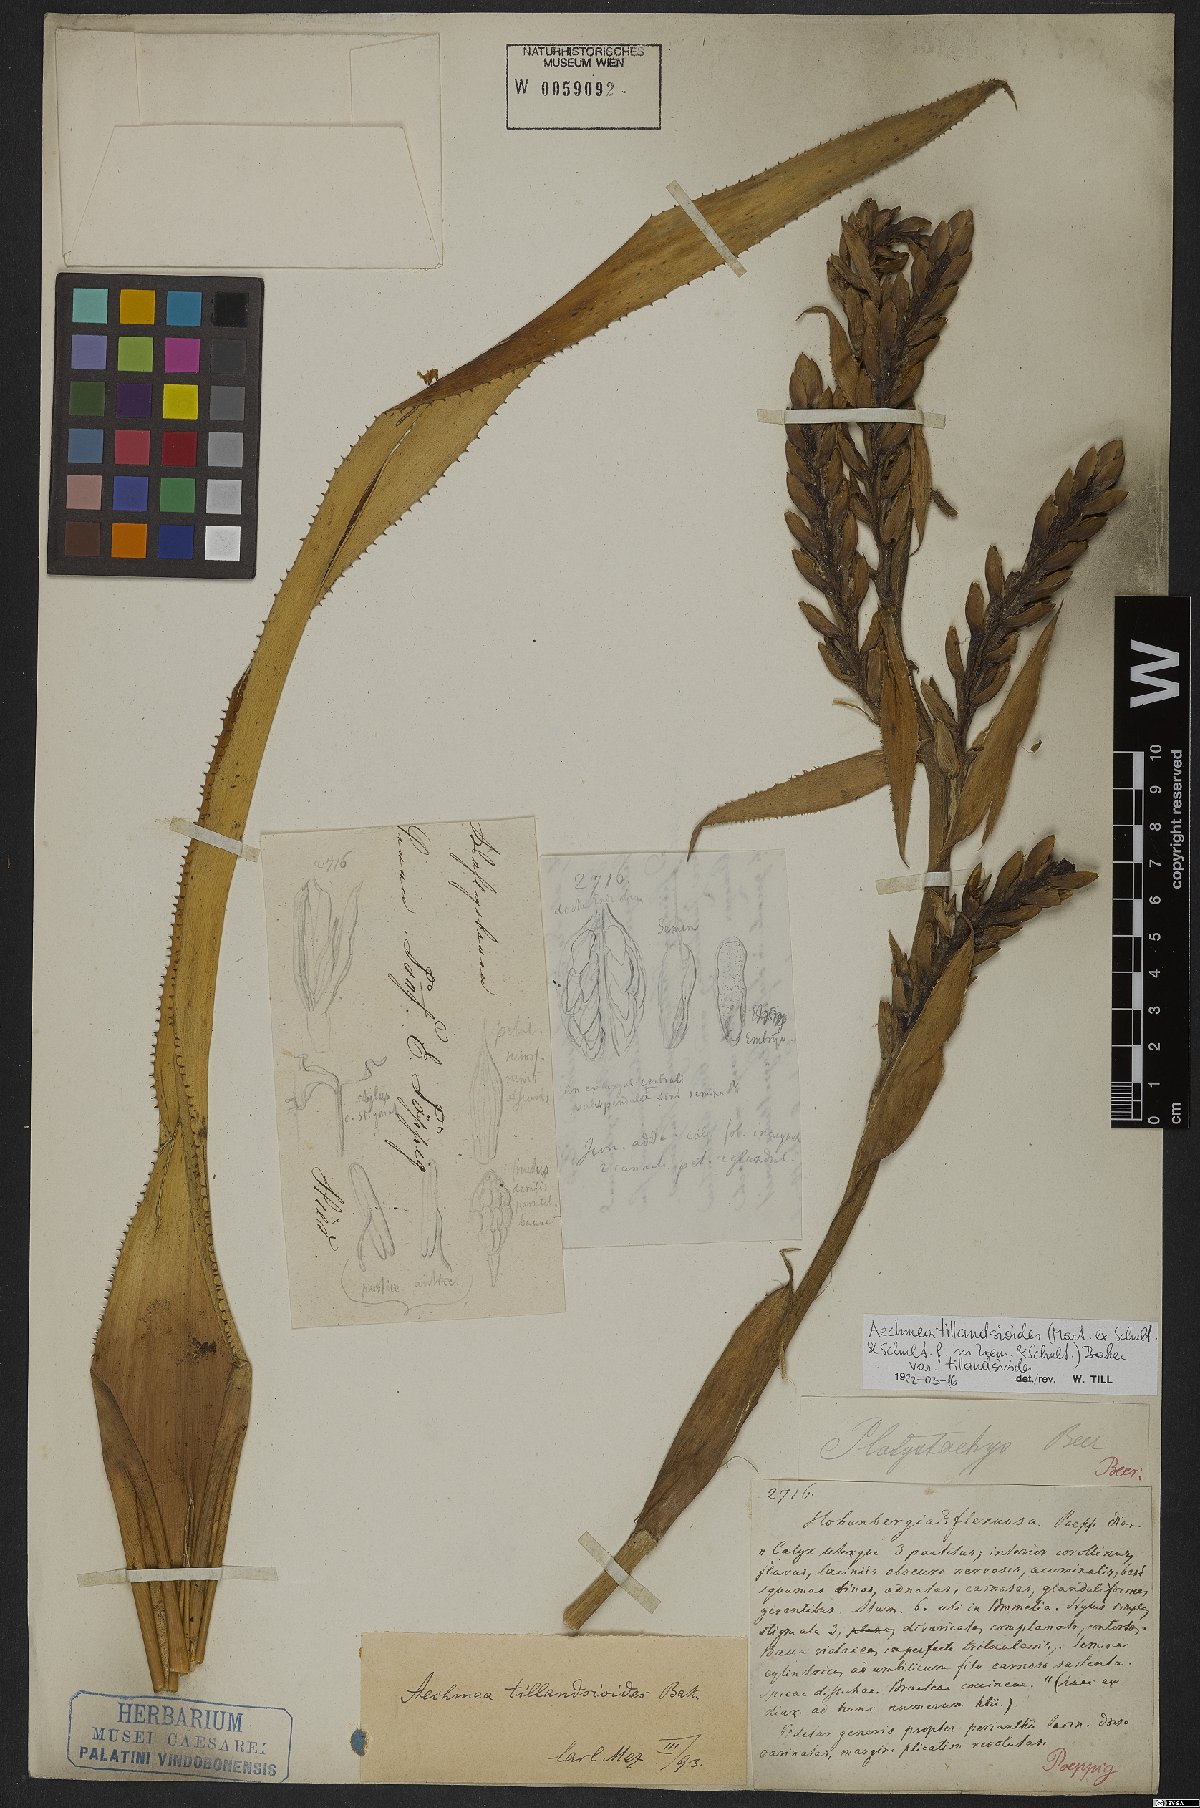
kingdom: Plantae
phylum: Tracheophyta
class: Liliopsida
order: Poales
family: Bromeliaceae
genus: Aechmea
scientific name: Aechmea tillandsioides
